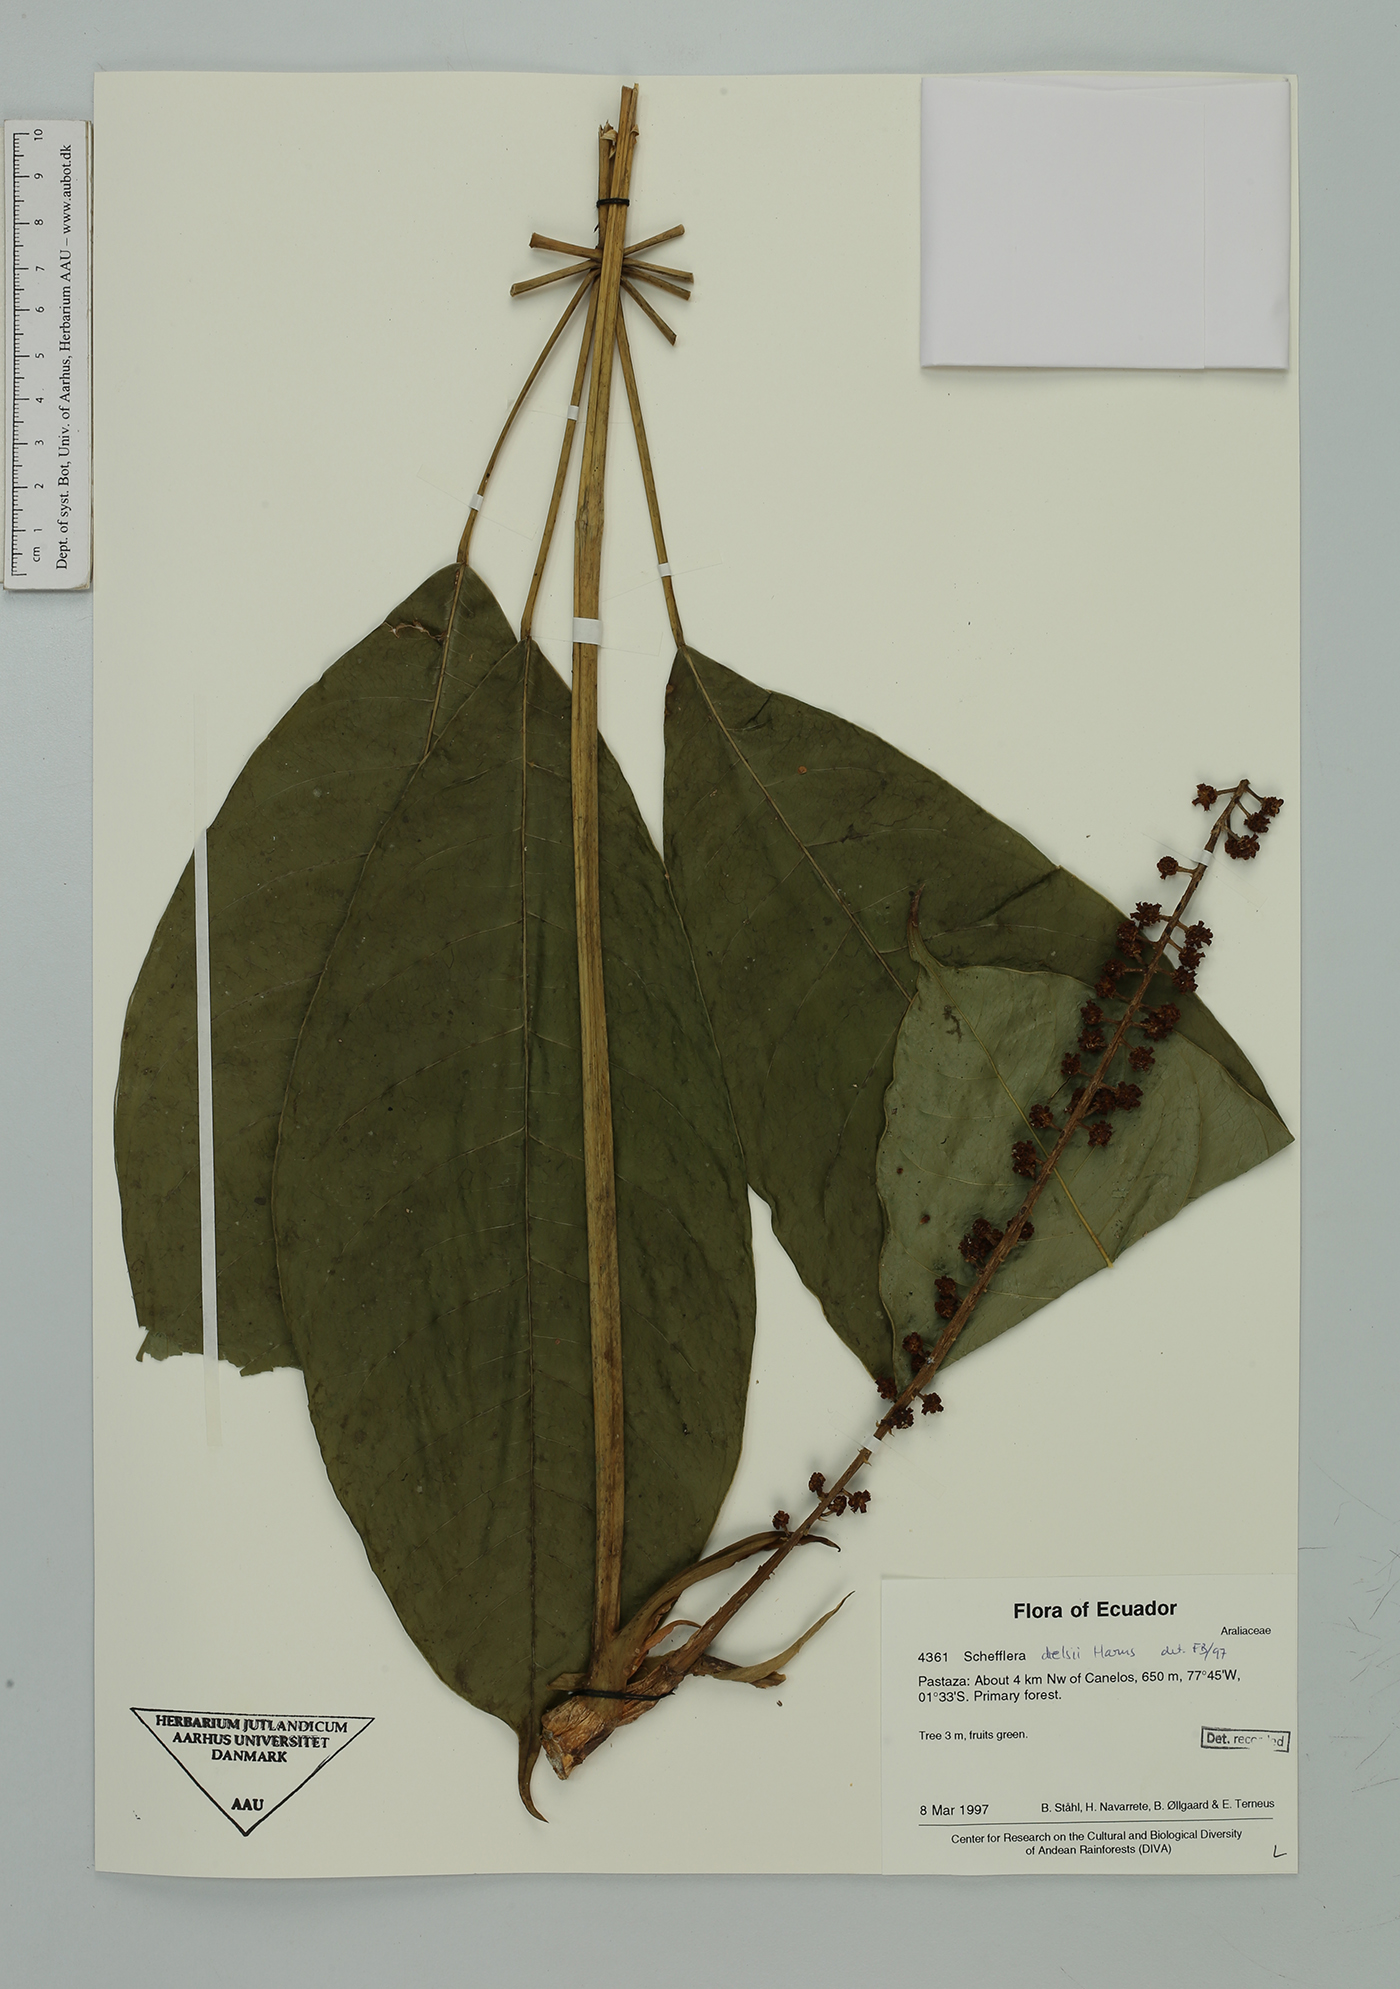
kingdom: Plantae
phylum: Tracheophyta
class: Magnoliopsida
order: Apiales
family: Araliaceae
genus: Sciodaphyllum
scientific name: Sciodaphyllum dielsii
